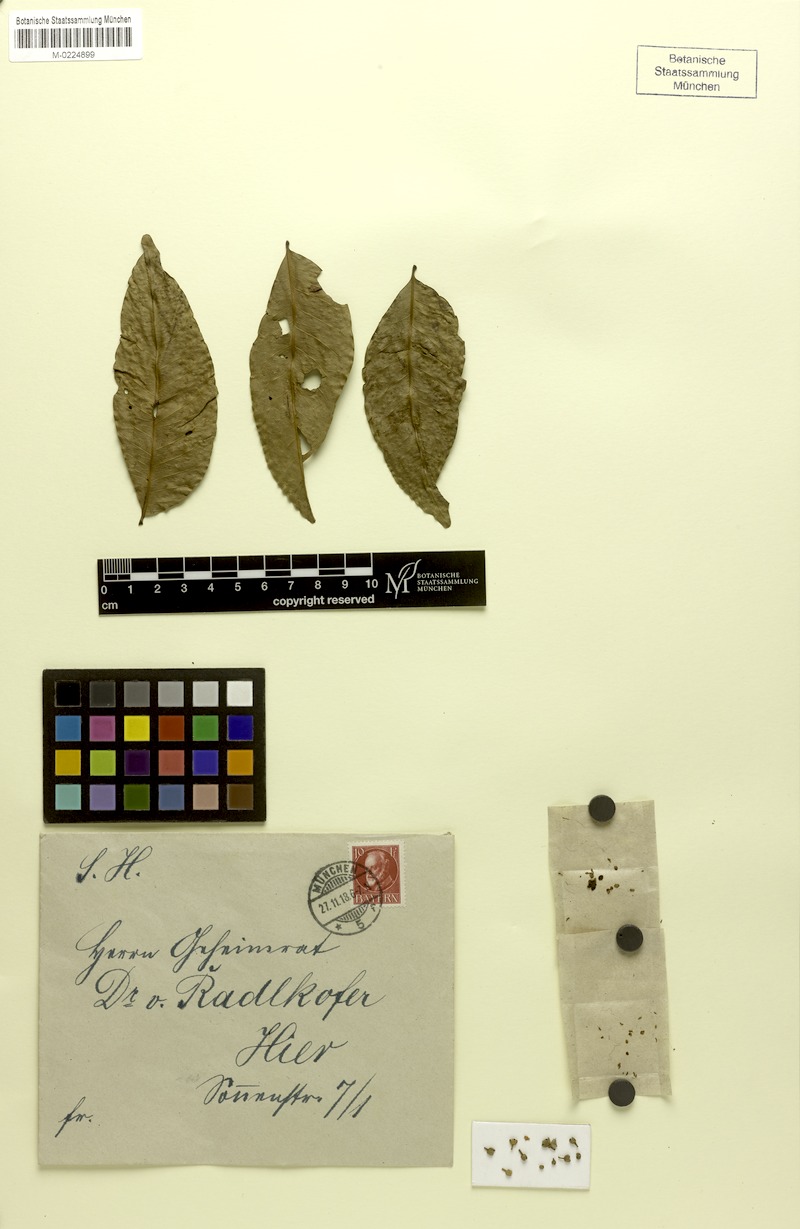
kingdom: Plantae
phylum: Tracheophyta
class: Magnoliopsida
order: Sapindales
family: Sapindaceae
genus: Tristiropsis
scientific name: Tristiropsis acutangula
